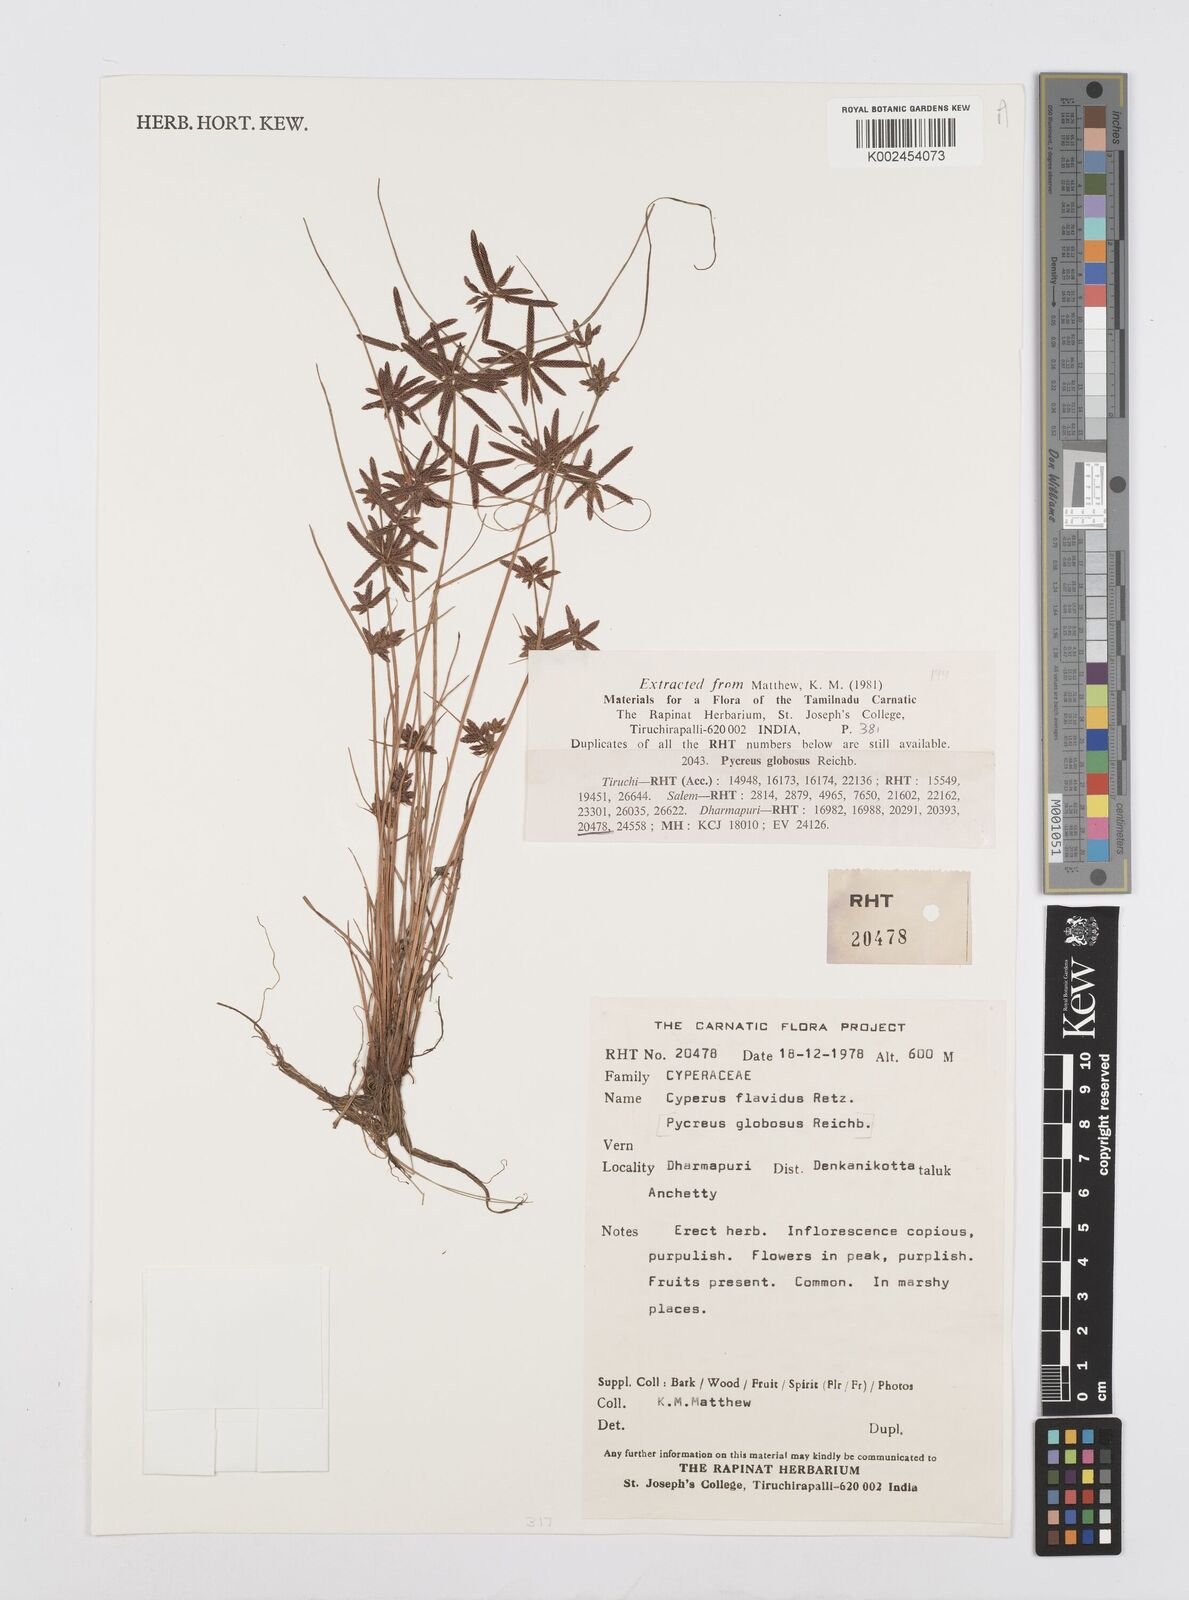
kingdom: Plantae
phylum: Tracheophyta
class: Liliopsida
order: Poales
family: Cyperaceae
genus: Cyperus
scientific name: Cyperus flavidus
